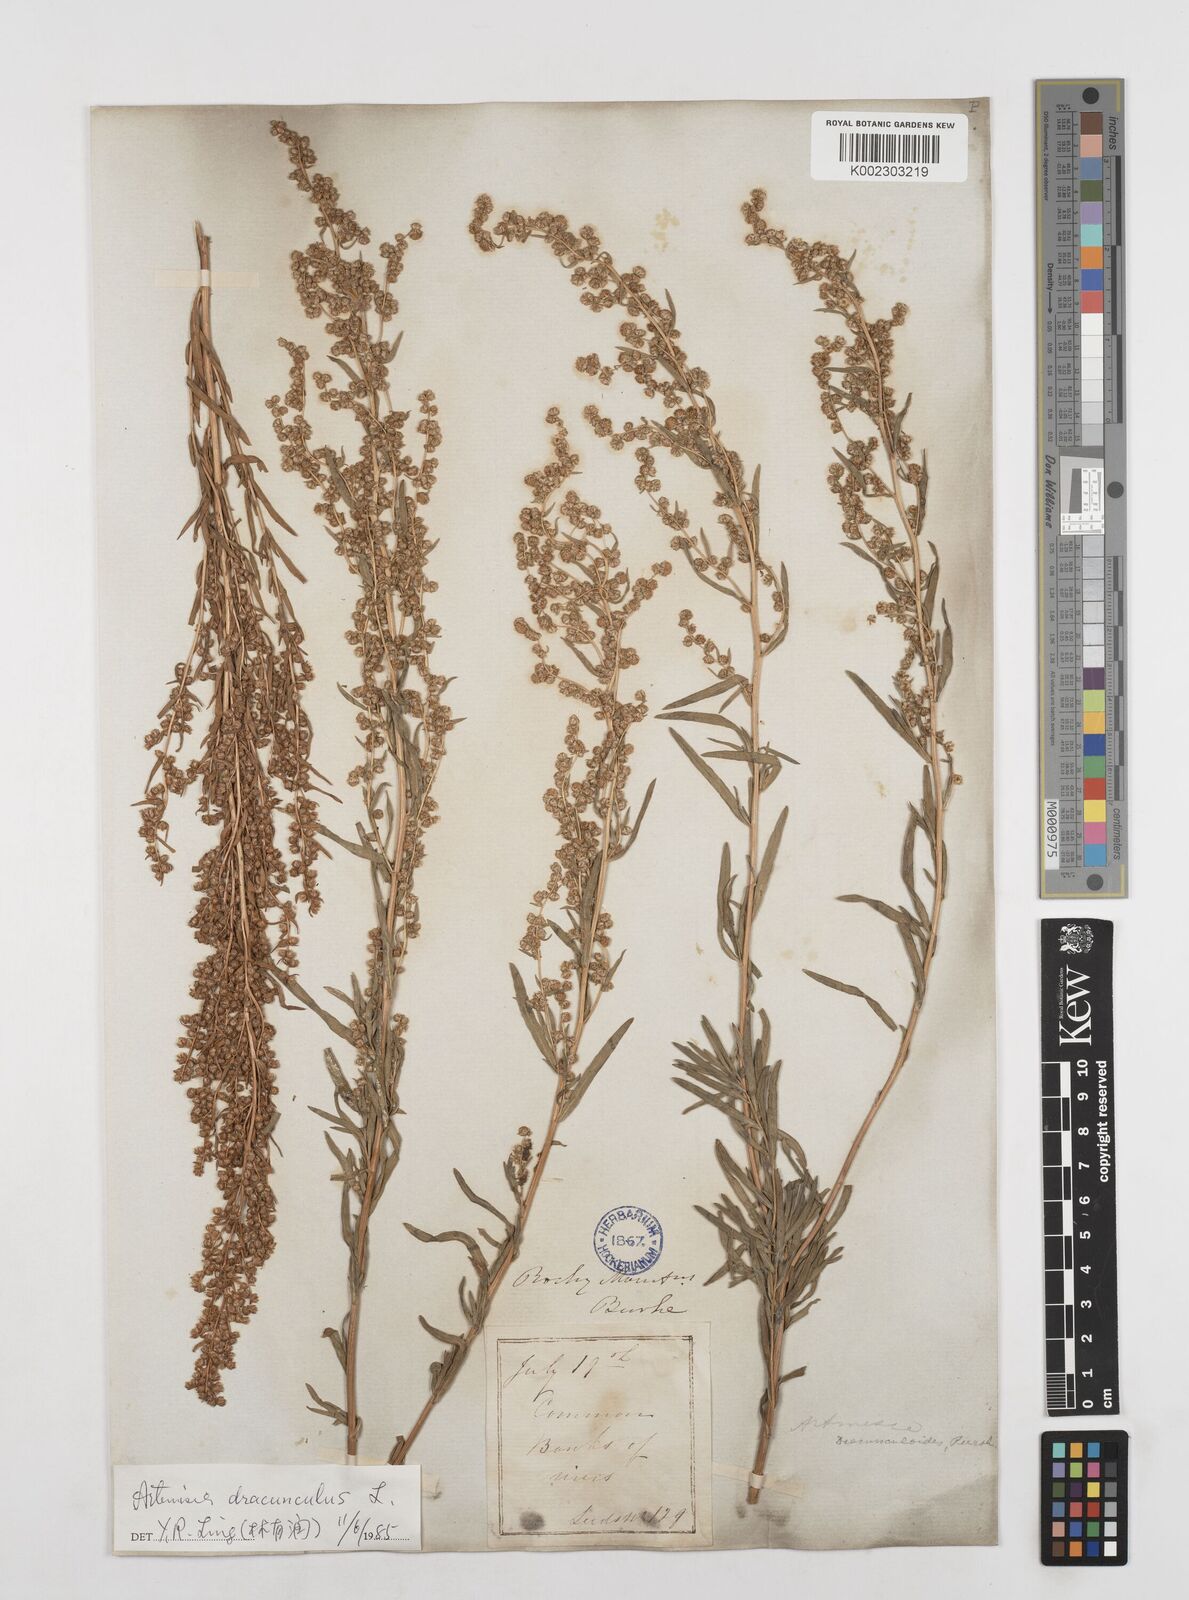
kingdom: Plantae
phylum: Tracheophyta
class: Magnoliopsida
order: Asterales
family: Asteraceae
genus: Artemisia
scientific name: Artemisia dracunculus
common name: Tarragon
